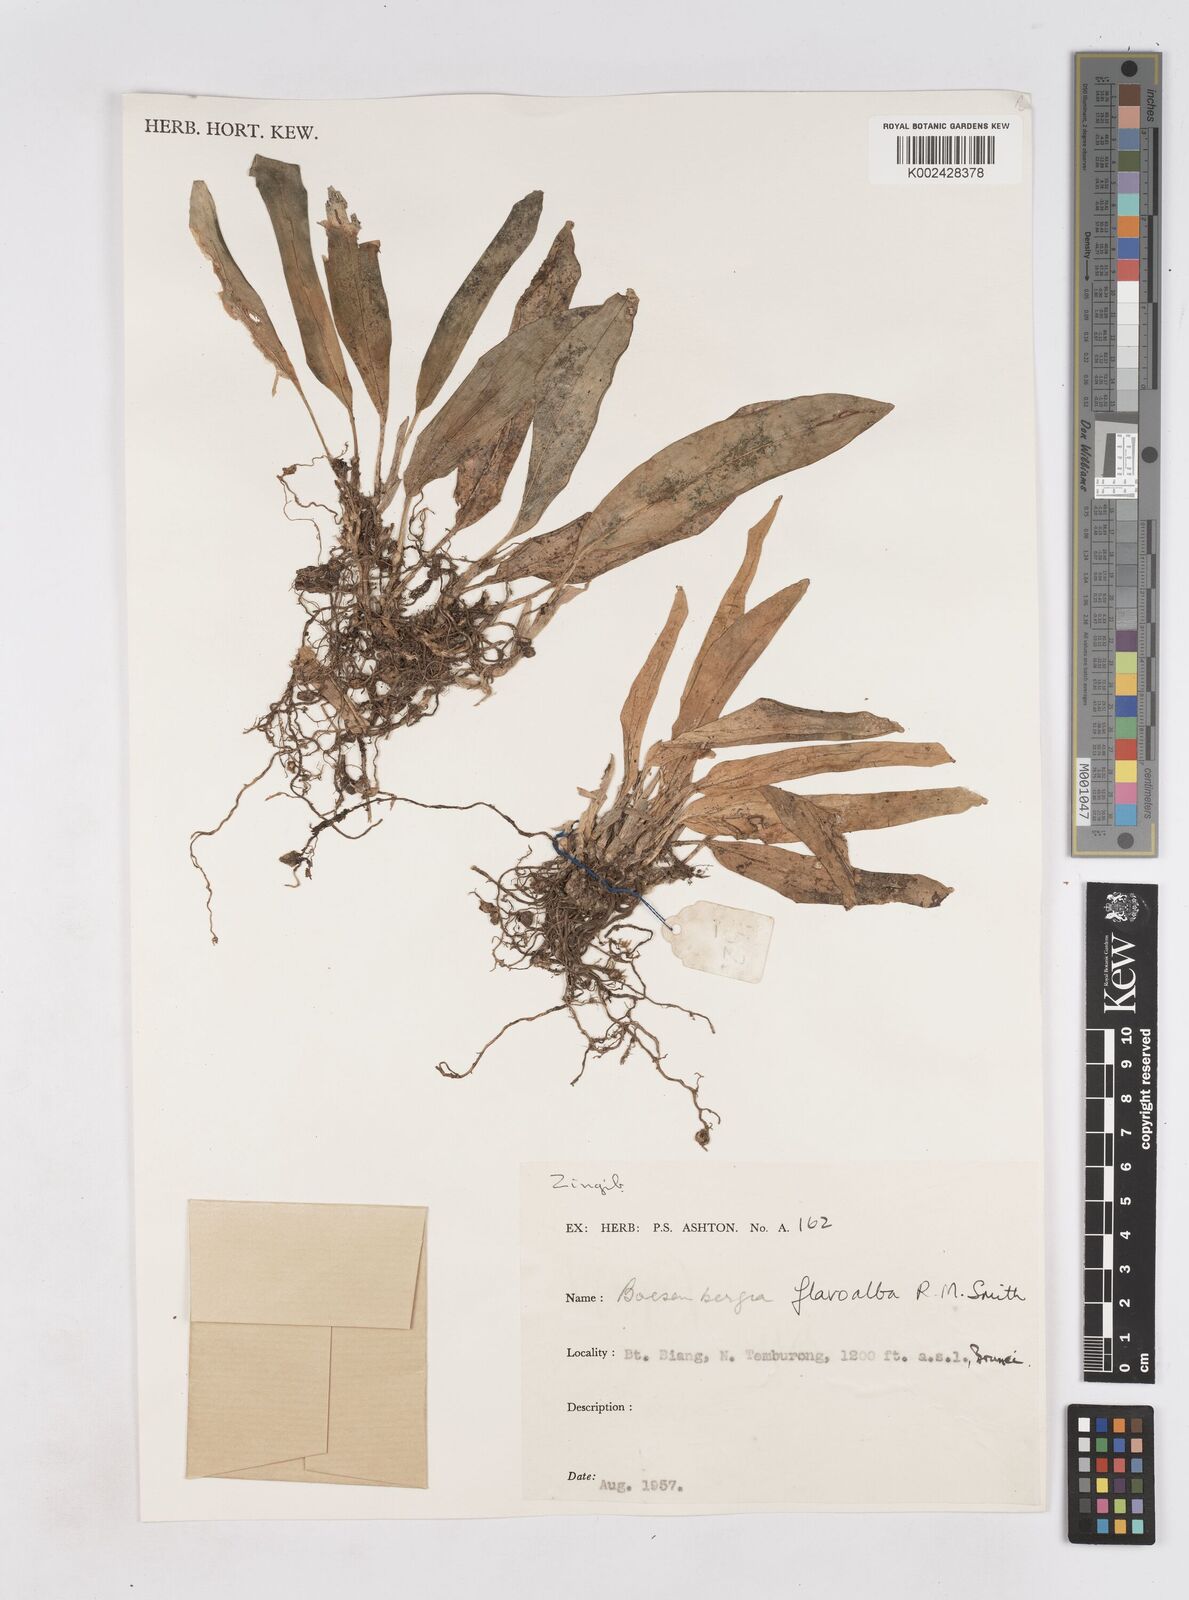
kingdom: Plantae
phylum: Tracheophyta
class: Liliopsida
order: Zingiberales
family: Zingiberaceae
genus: Boesenbergia
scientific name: Boesenbergia flavoalba
